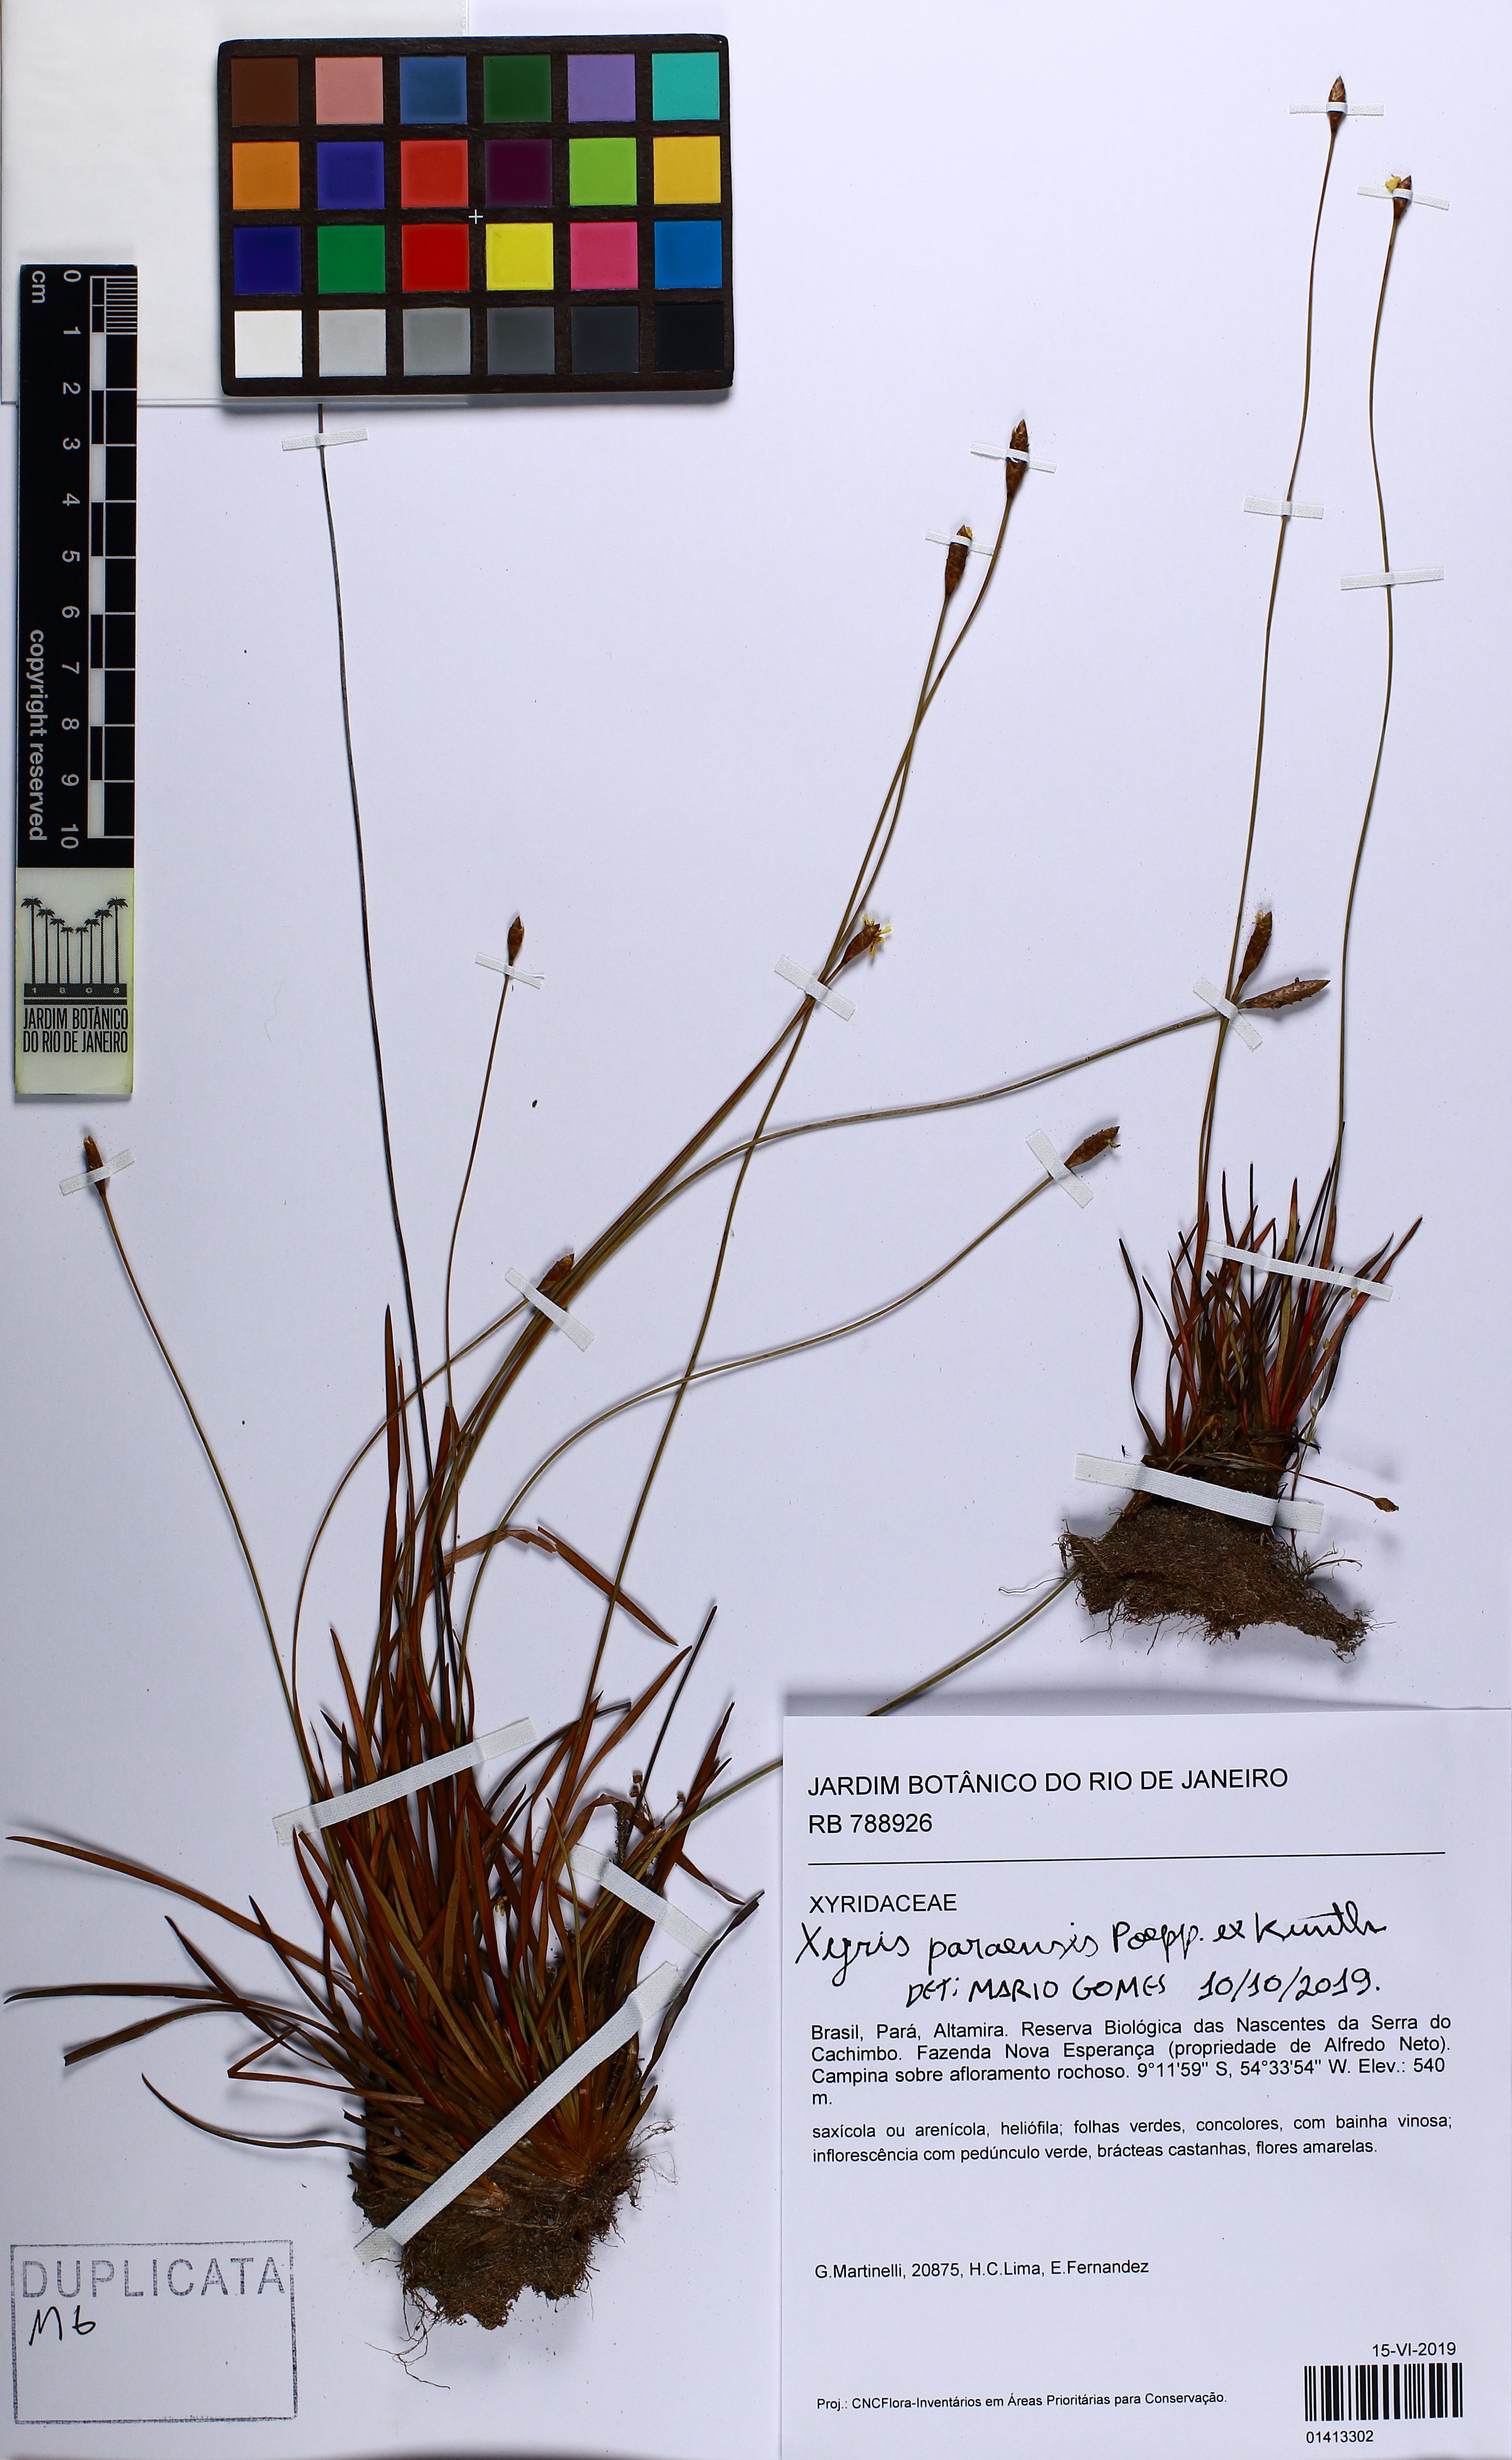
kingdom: Plantae
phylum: Tracheophyta
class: Liliopsida
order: Poales
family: Xyridaceae
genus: Xyris
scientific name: Xyris paraensis
